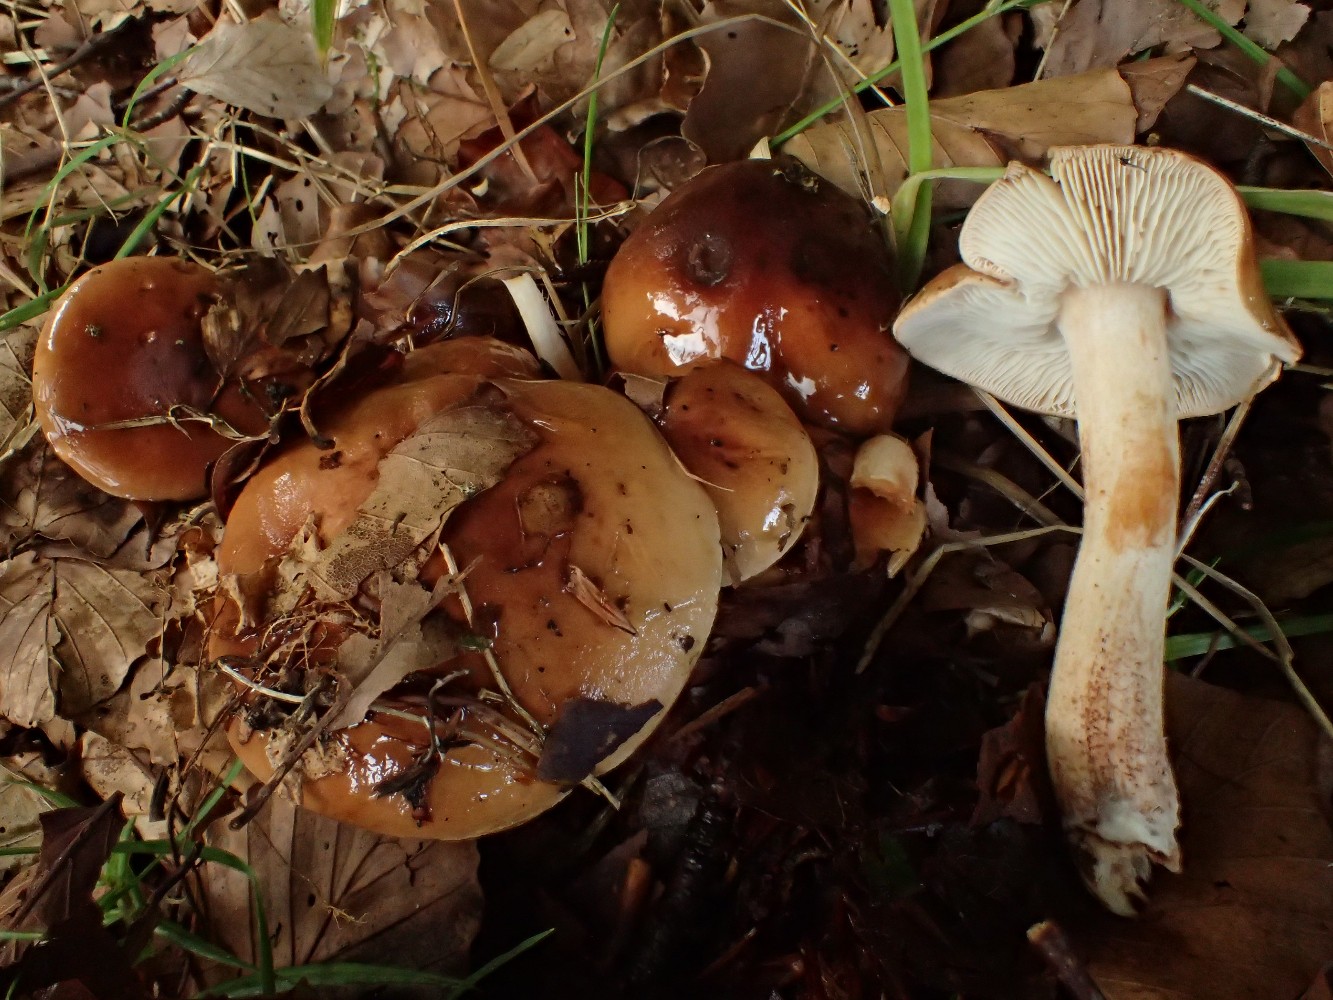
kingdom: Fungi
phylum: Basidiomycota
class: Agaricomycetes
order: Agaricales
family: Tricholomataceae
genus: Tricholoma
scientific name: Tricholoma ustale
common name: sveden ridderhat
